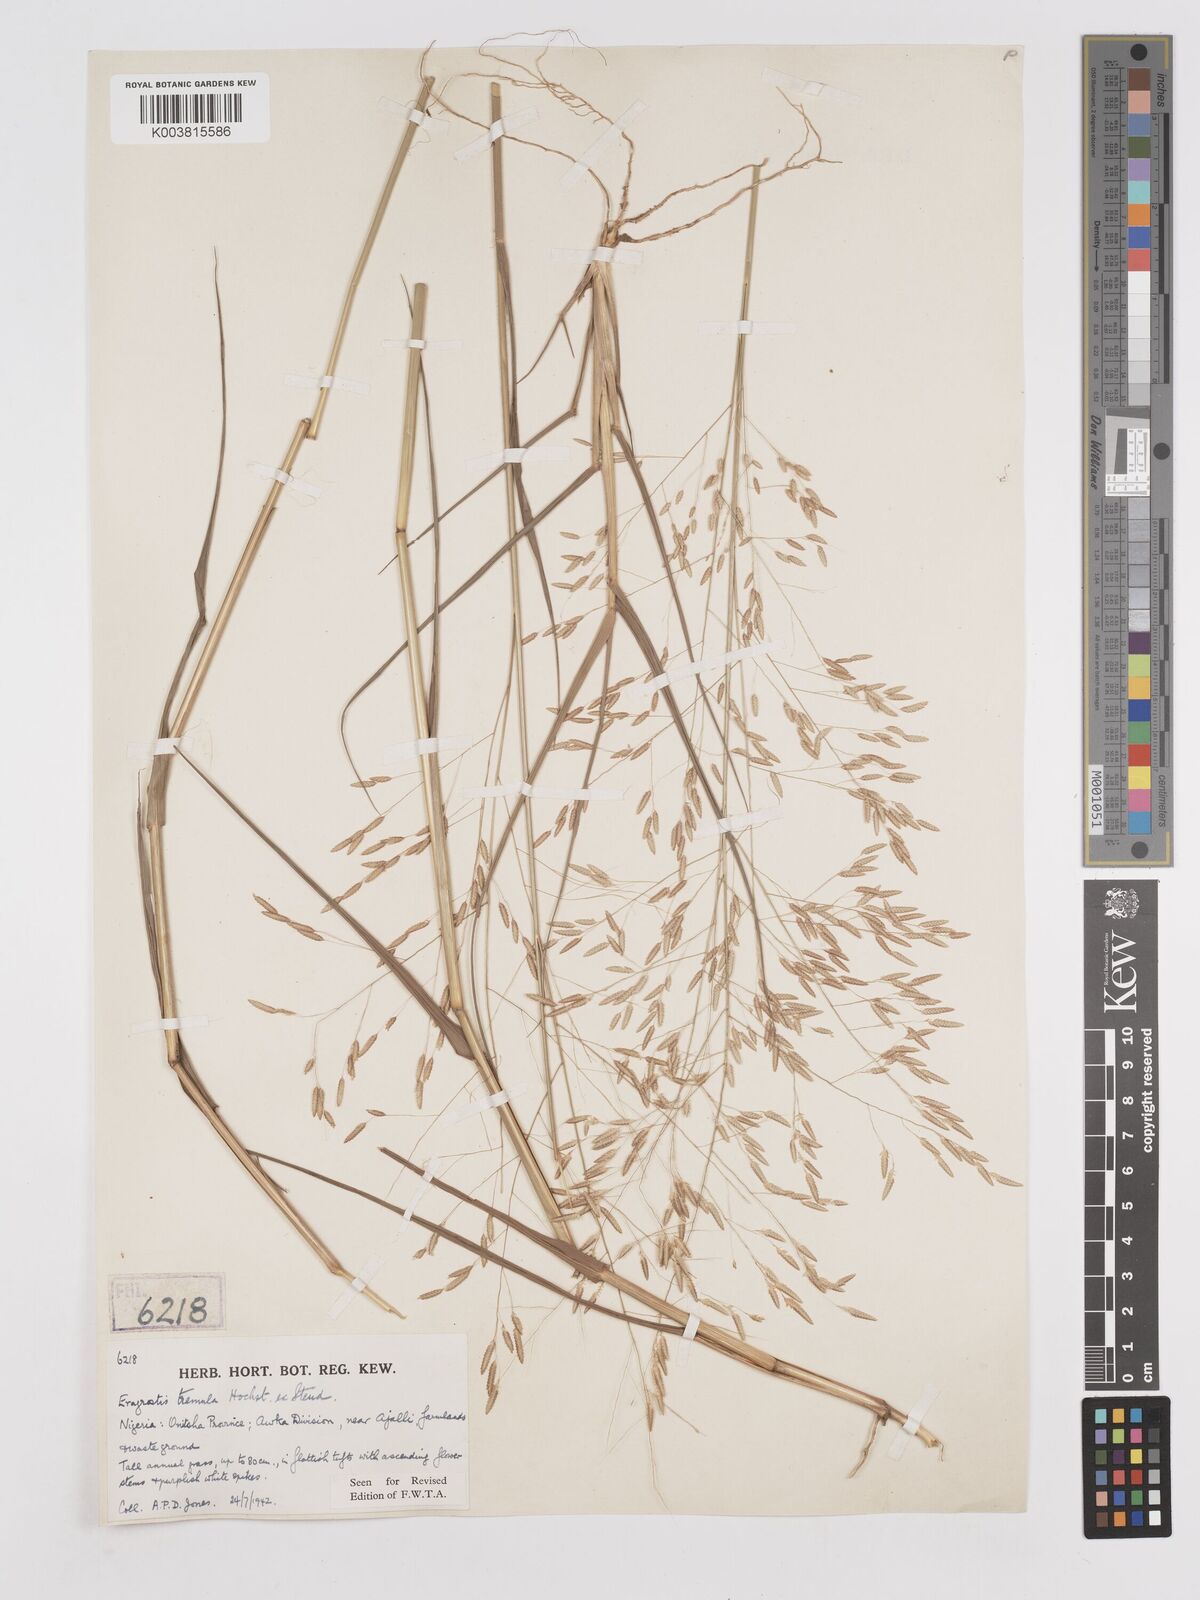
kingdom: Plantae
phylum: Tracheophyta
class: Liliopsida
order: Poales
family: Poaceae
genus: Eragrostis
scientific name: Eragrostis tremula
